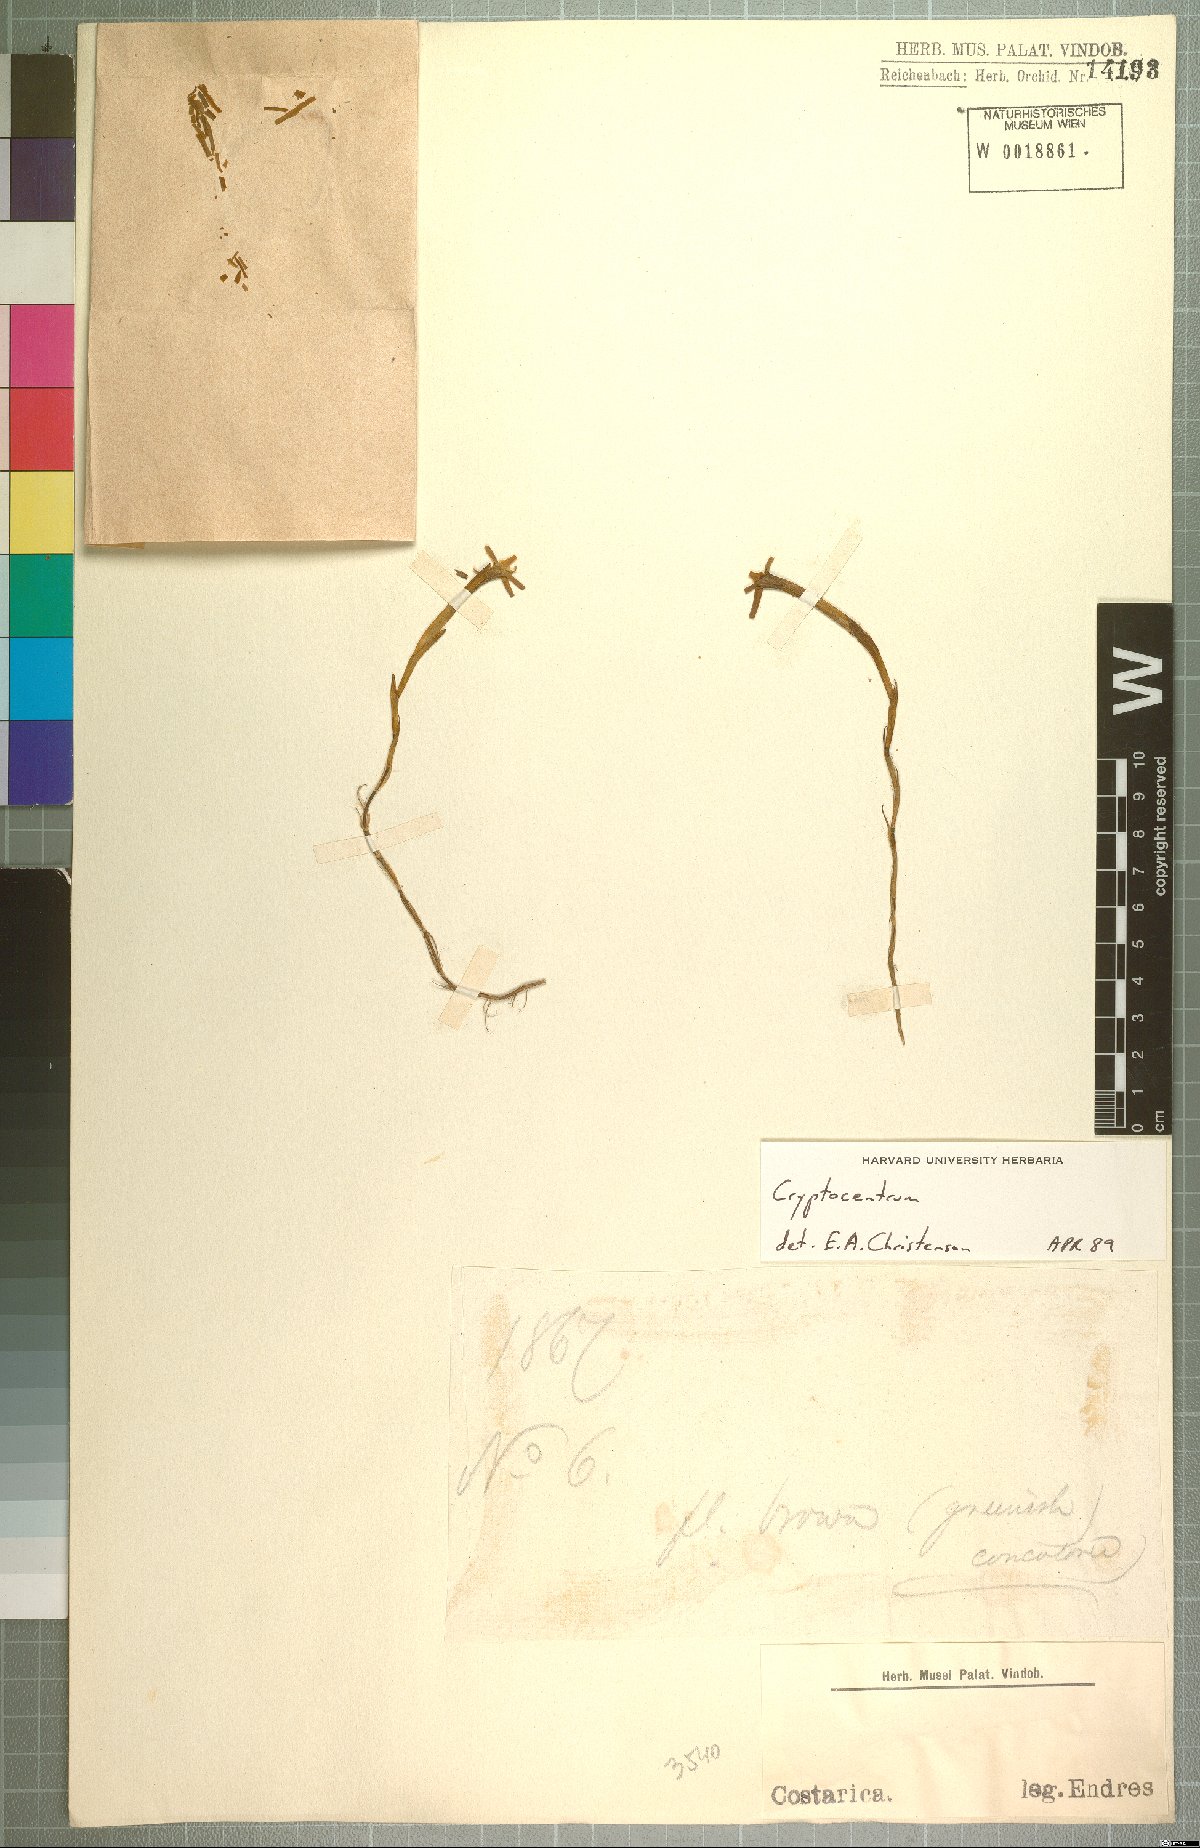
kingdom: Plantae
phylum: Tracheophyta
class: Liliopsida
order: Asparagales
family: Orchidaceae
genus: Maxillaria
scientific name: Maxillaria calcarata
